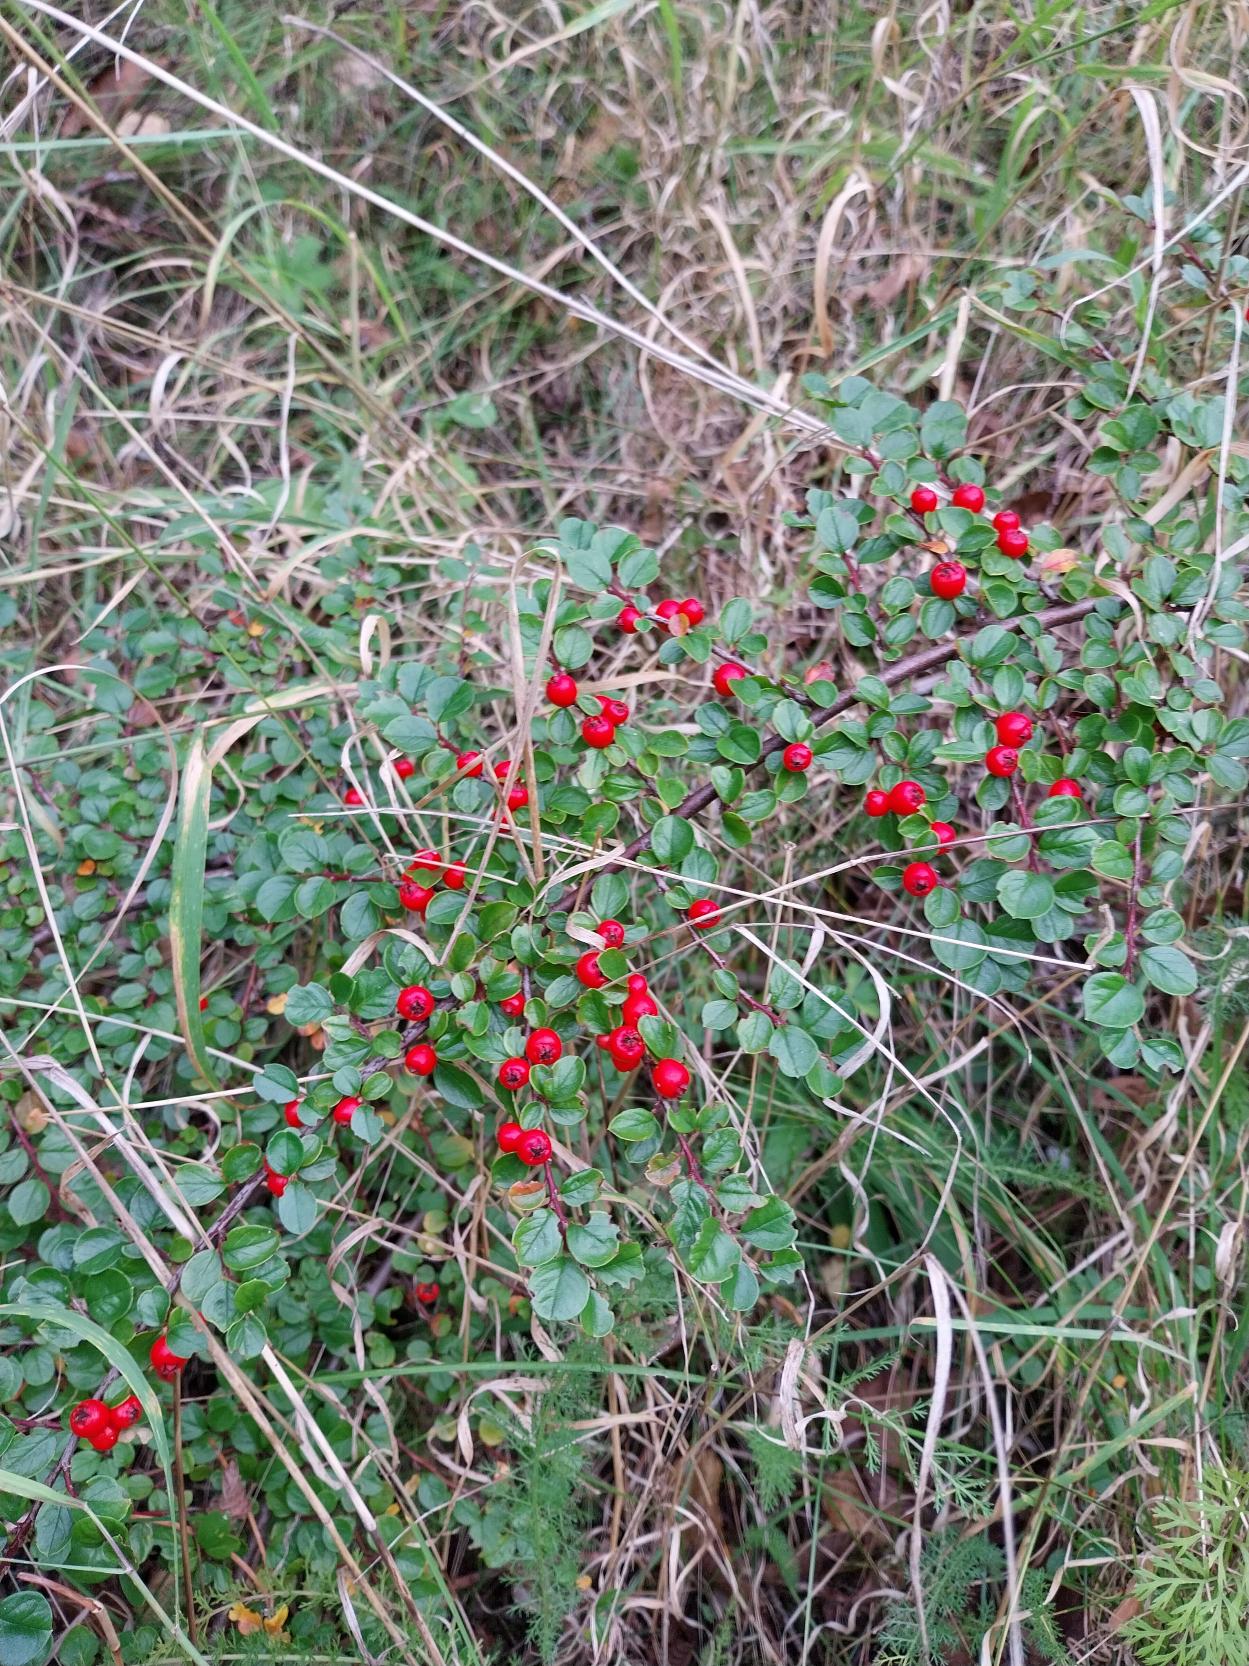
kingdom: Plantae
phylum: Tracheophyta
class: Magnoliopsida
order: Rosales
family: Rosaceae
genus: Cotoneaster
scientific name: Cotoneaster horizontalis
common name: Lodret og vandret
